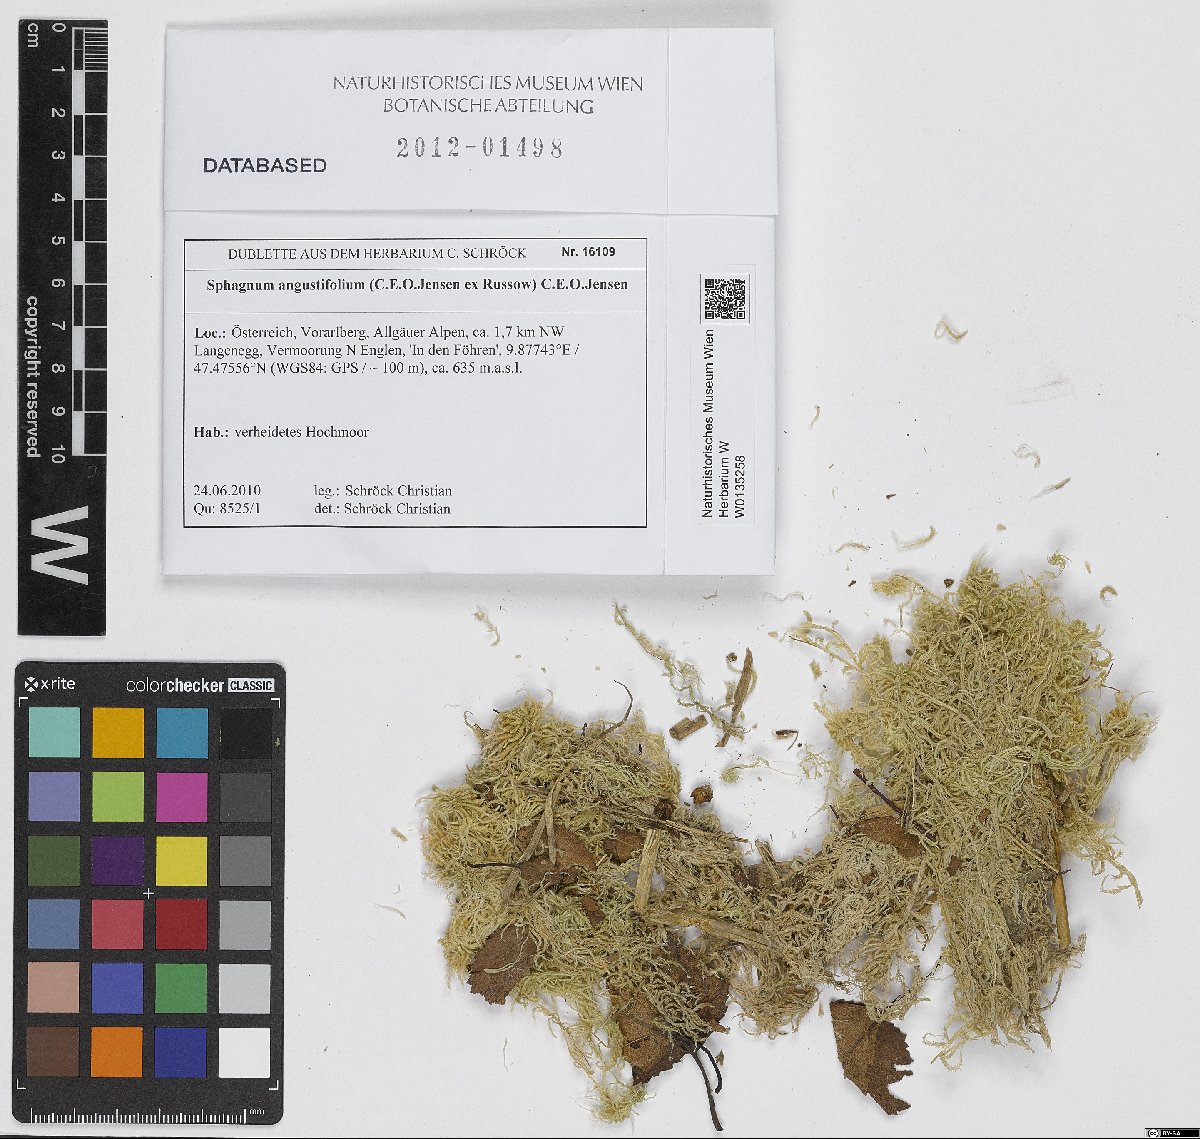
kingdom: Plantae
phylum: Bryophyta
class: Sphagnopsida
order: Sphagnales
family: Sphagnaceae
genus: Sphagnum
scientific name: Sphagnum angustifolium
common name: Narrow-leaved peat moss
